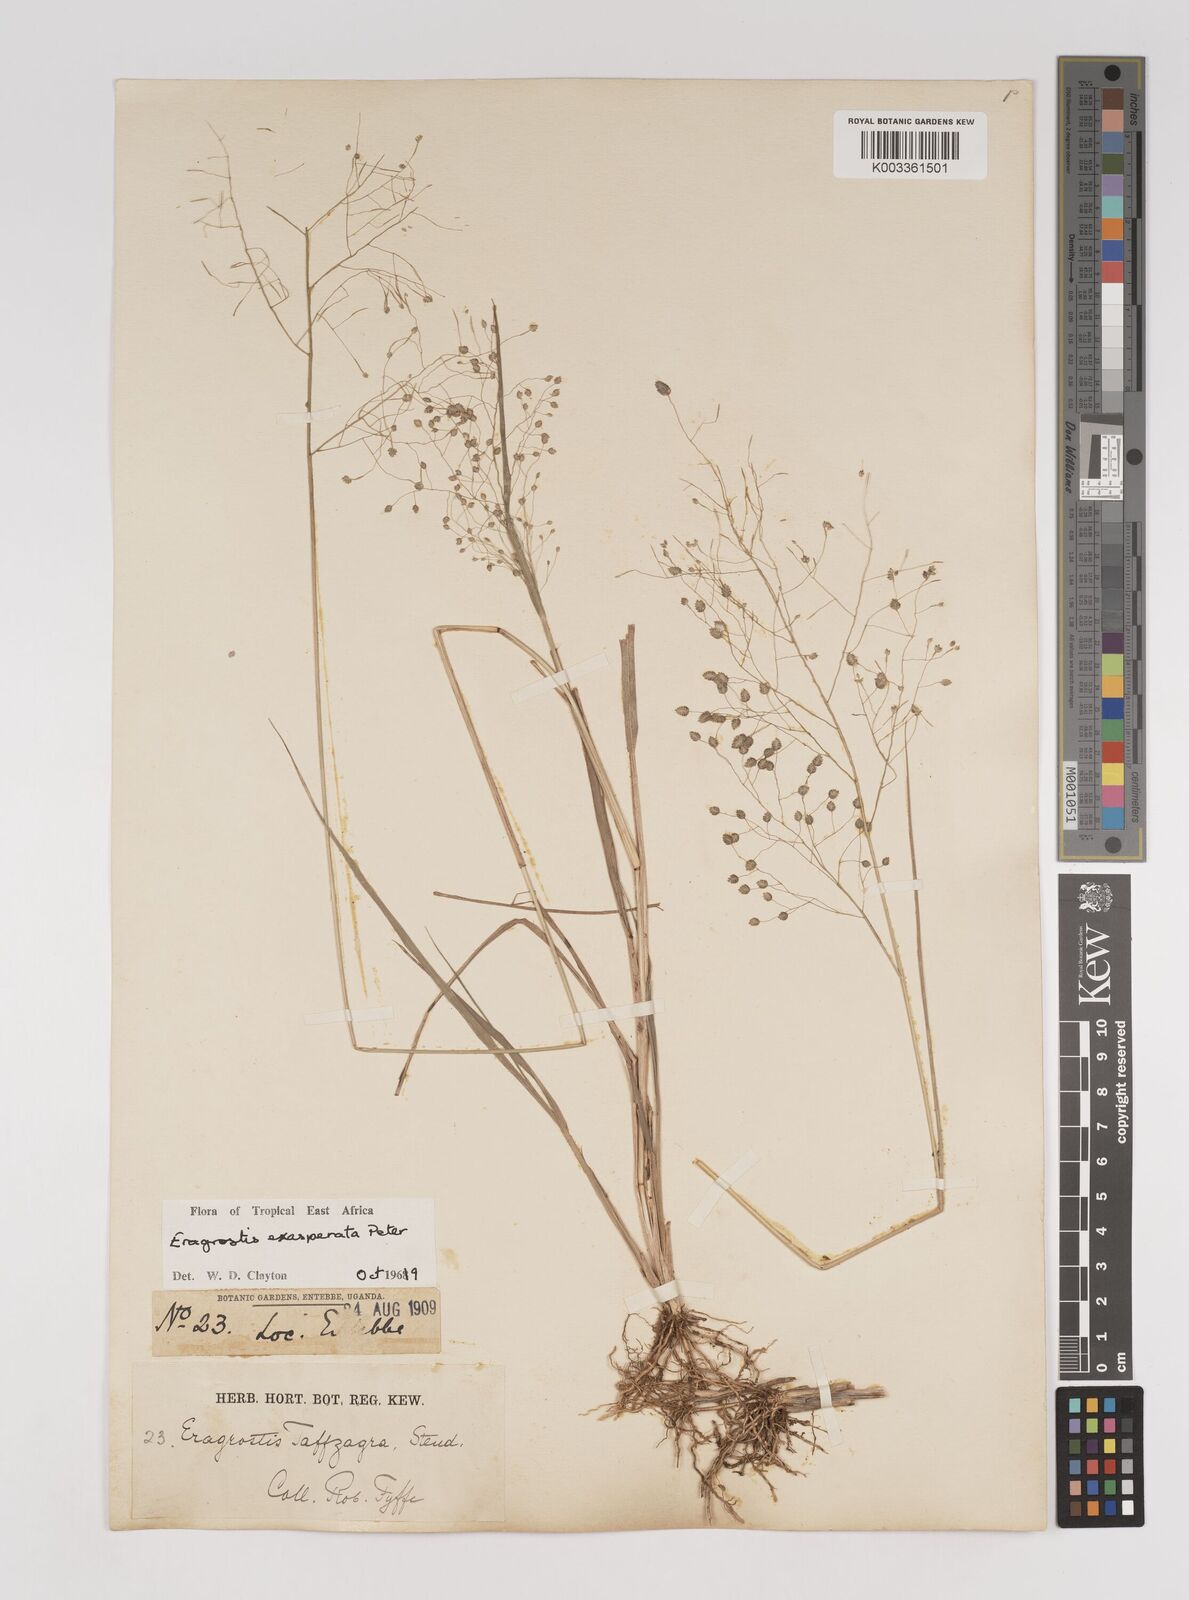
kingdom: Plantae
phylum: Tracheophyta
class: Liliopsida
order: Poales
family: Poaceae
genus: Eragrostis
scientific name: Eragrostis exasperata
